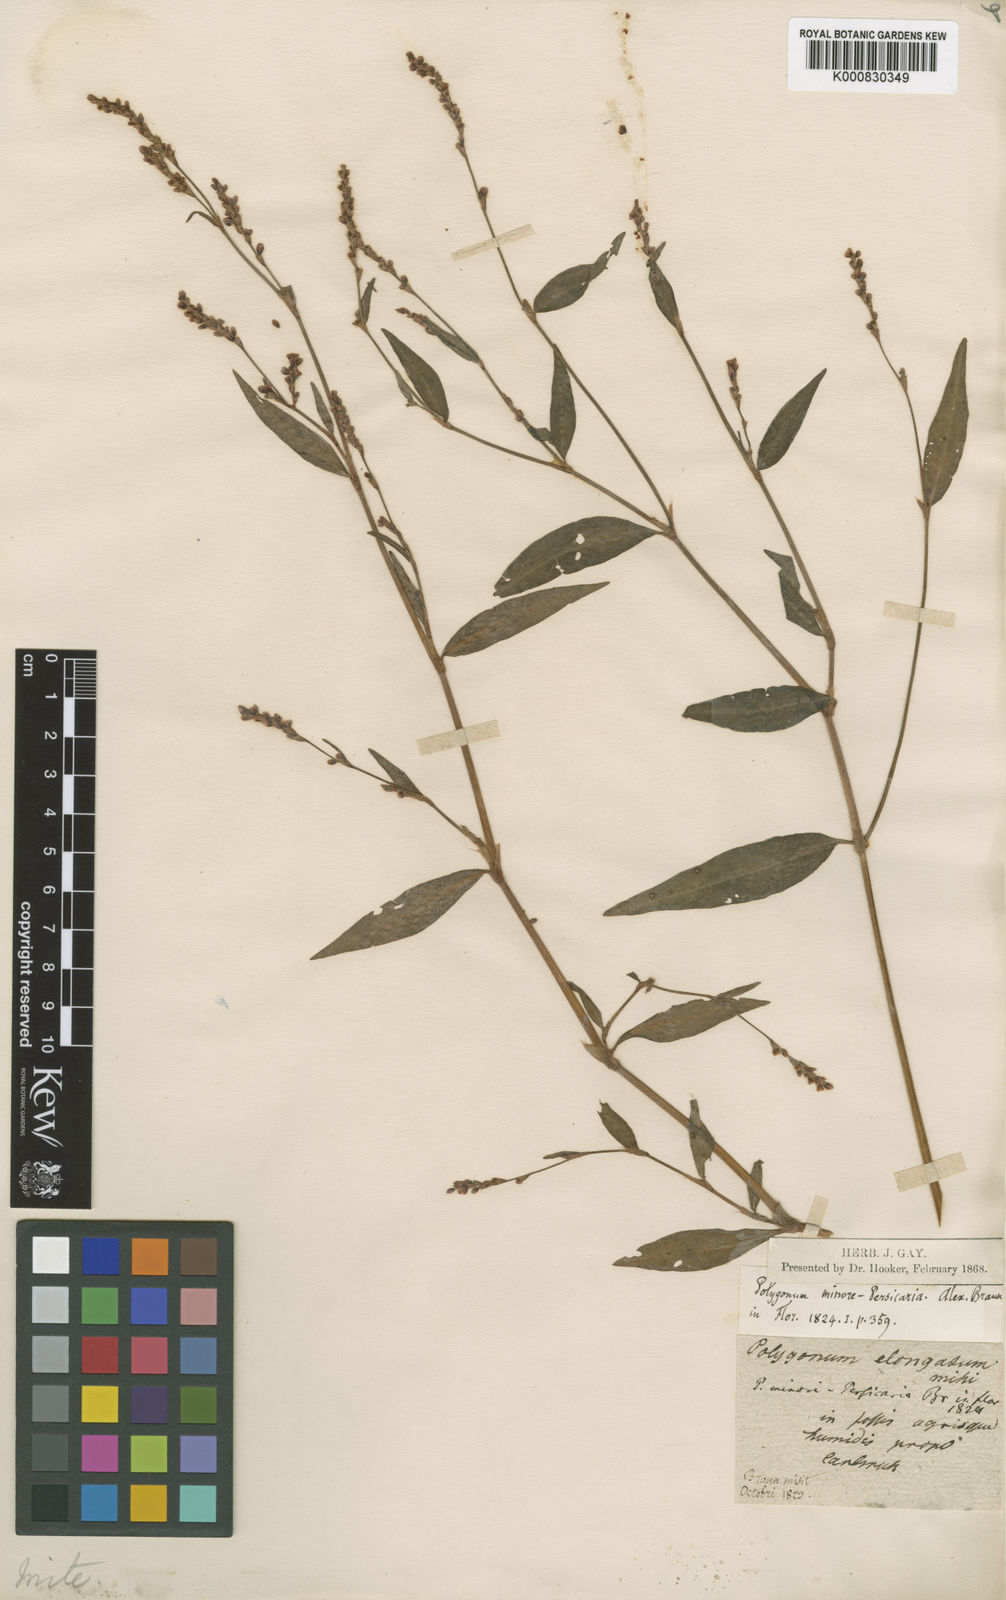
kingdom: Plantae
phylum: Tracheophyta
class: Magnoliopsida
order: Caryophyllales
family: Polygonaceae
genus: Persicaria
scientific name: Persicaria mitis
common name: Tasteless water-pepper
